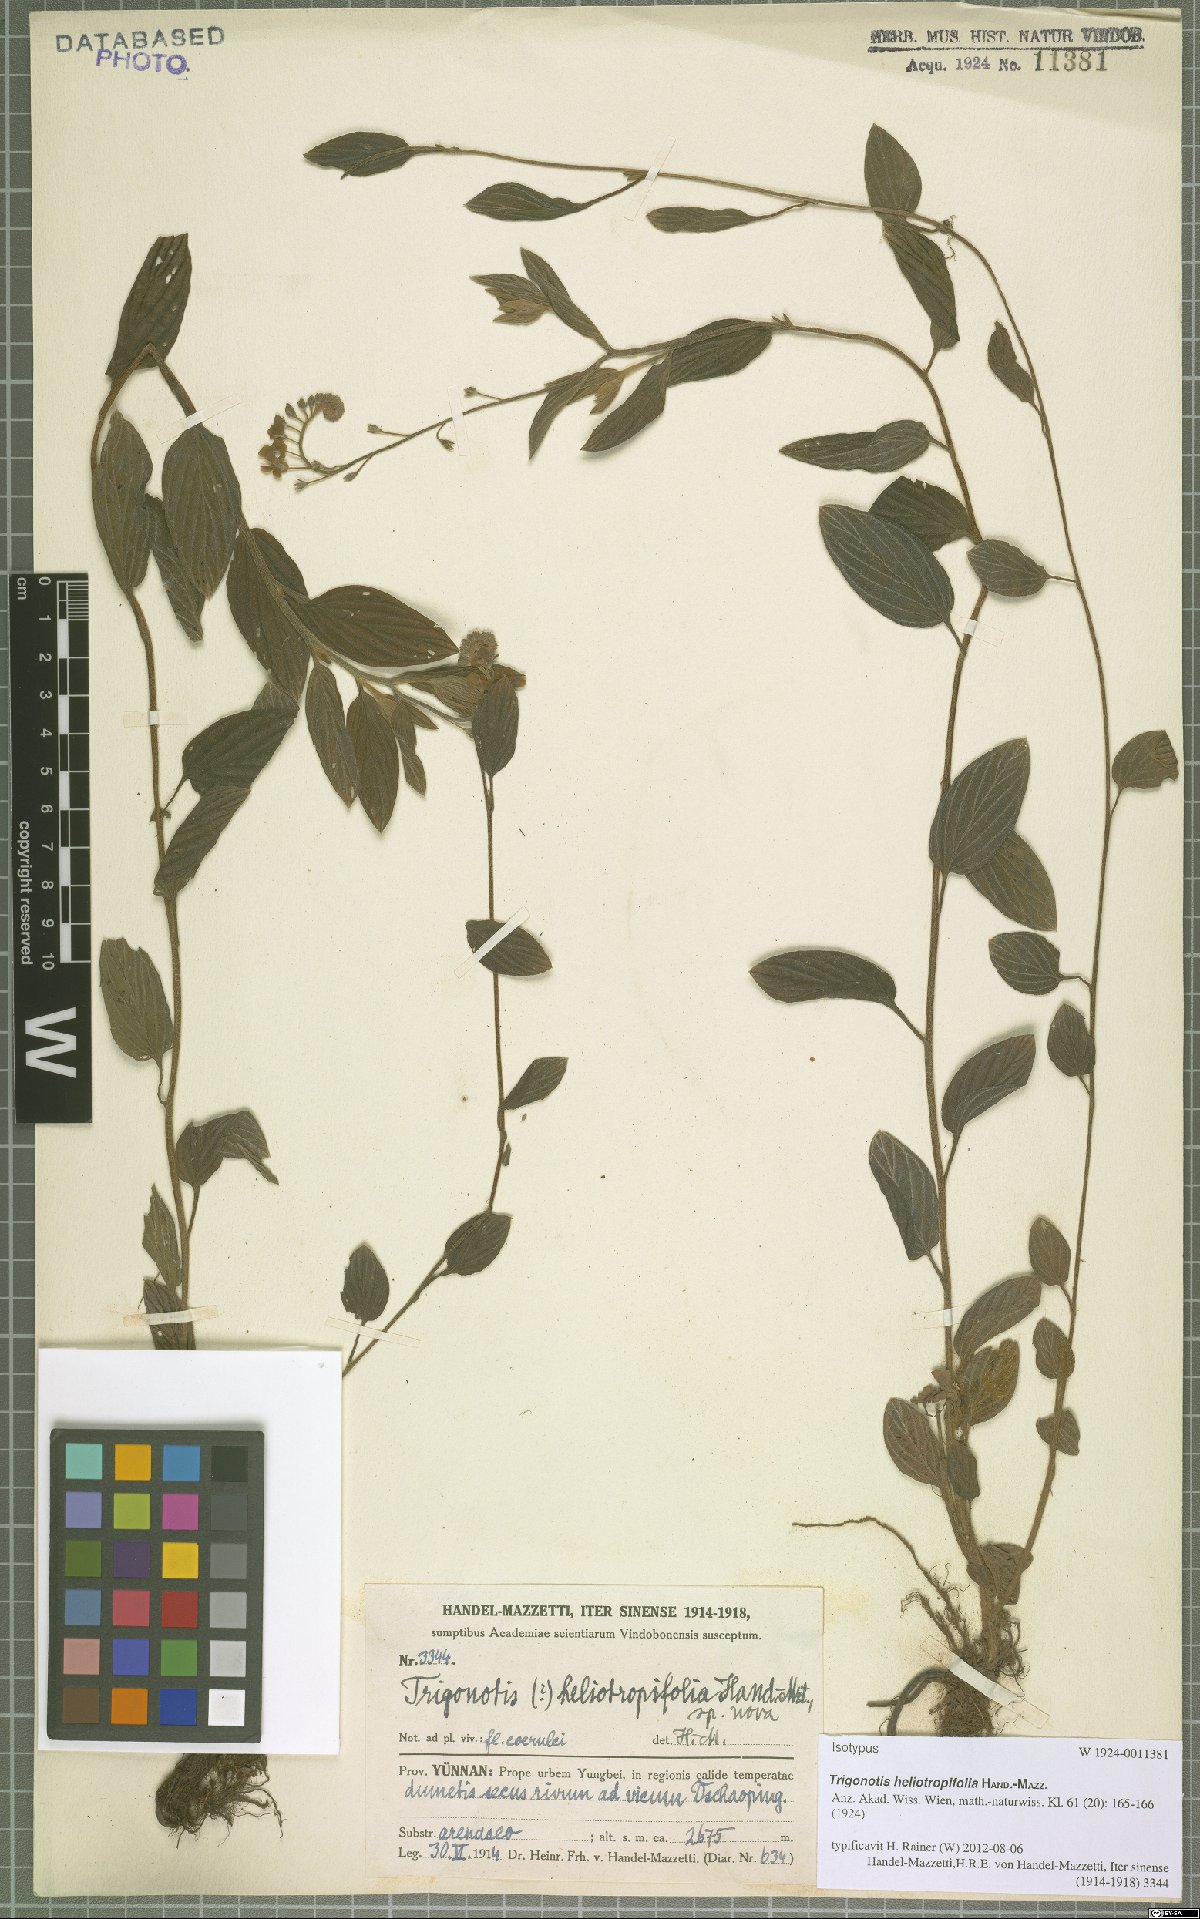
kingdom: Plantae
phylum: Tracheophyta
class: Magnoliopsida
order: Boraginales
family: Boraginaceae
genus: Trigonotis
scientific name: Trigonotis heliotropifolia
